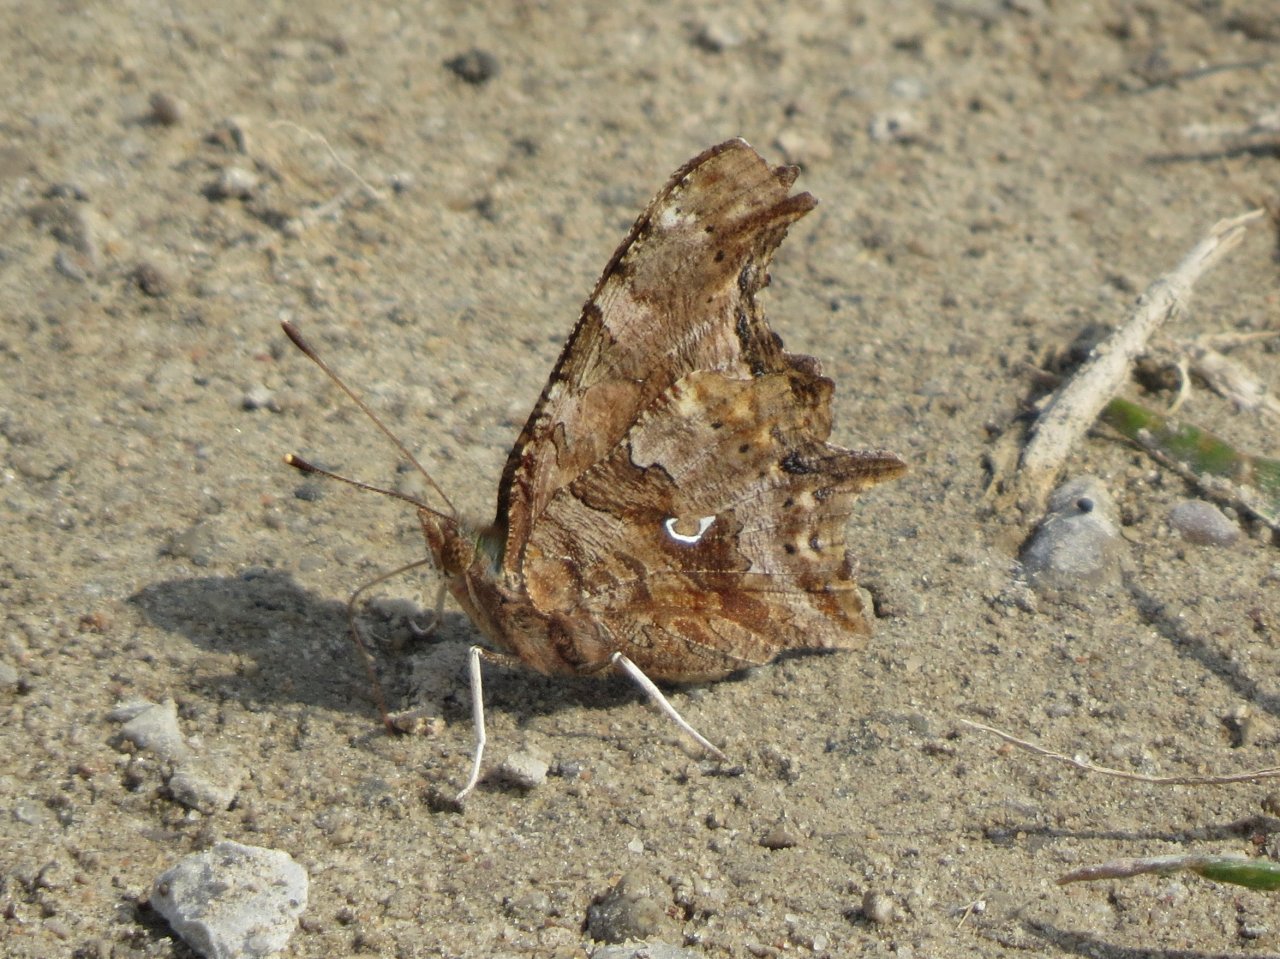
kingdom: Animalia
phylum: Arthropoda
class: Insecta
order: Lepidoptera
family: Nymphalidae
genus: Polygonia
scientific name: Polygonia comma
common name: Eastern Comma
